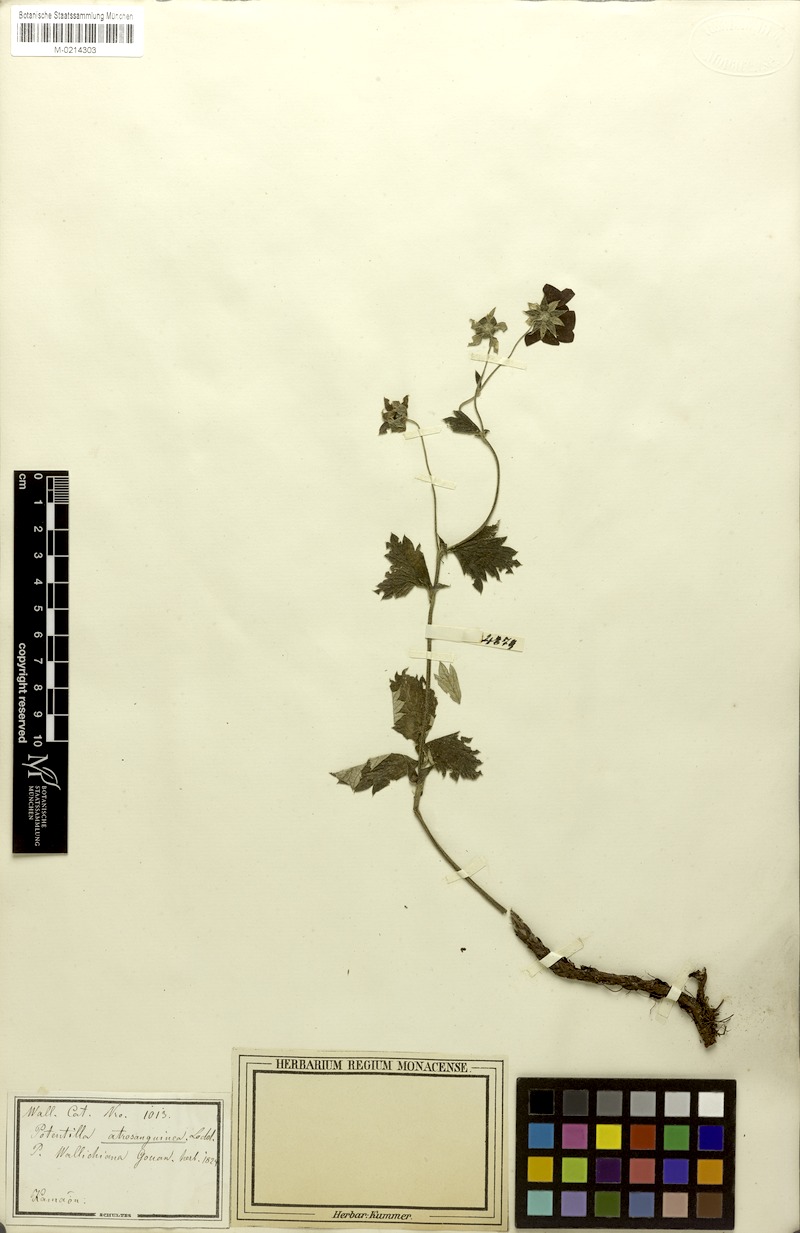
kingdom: Plantae
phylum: Tracheophyta
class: Magnoliopsida
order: Rosales
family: Rosaceae
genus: Potentilla
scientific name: Potentilla argyrophylla
